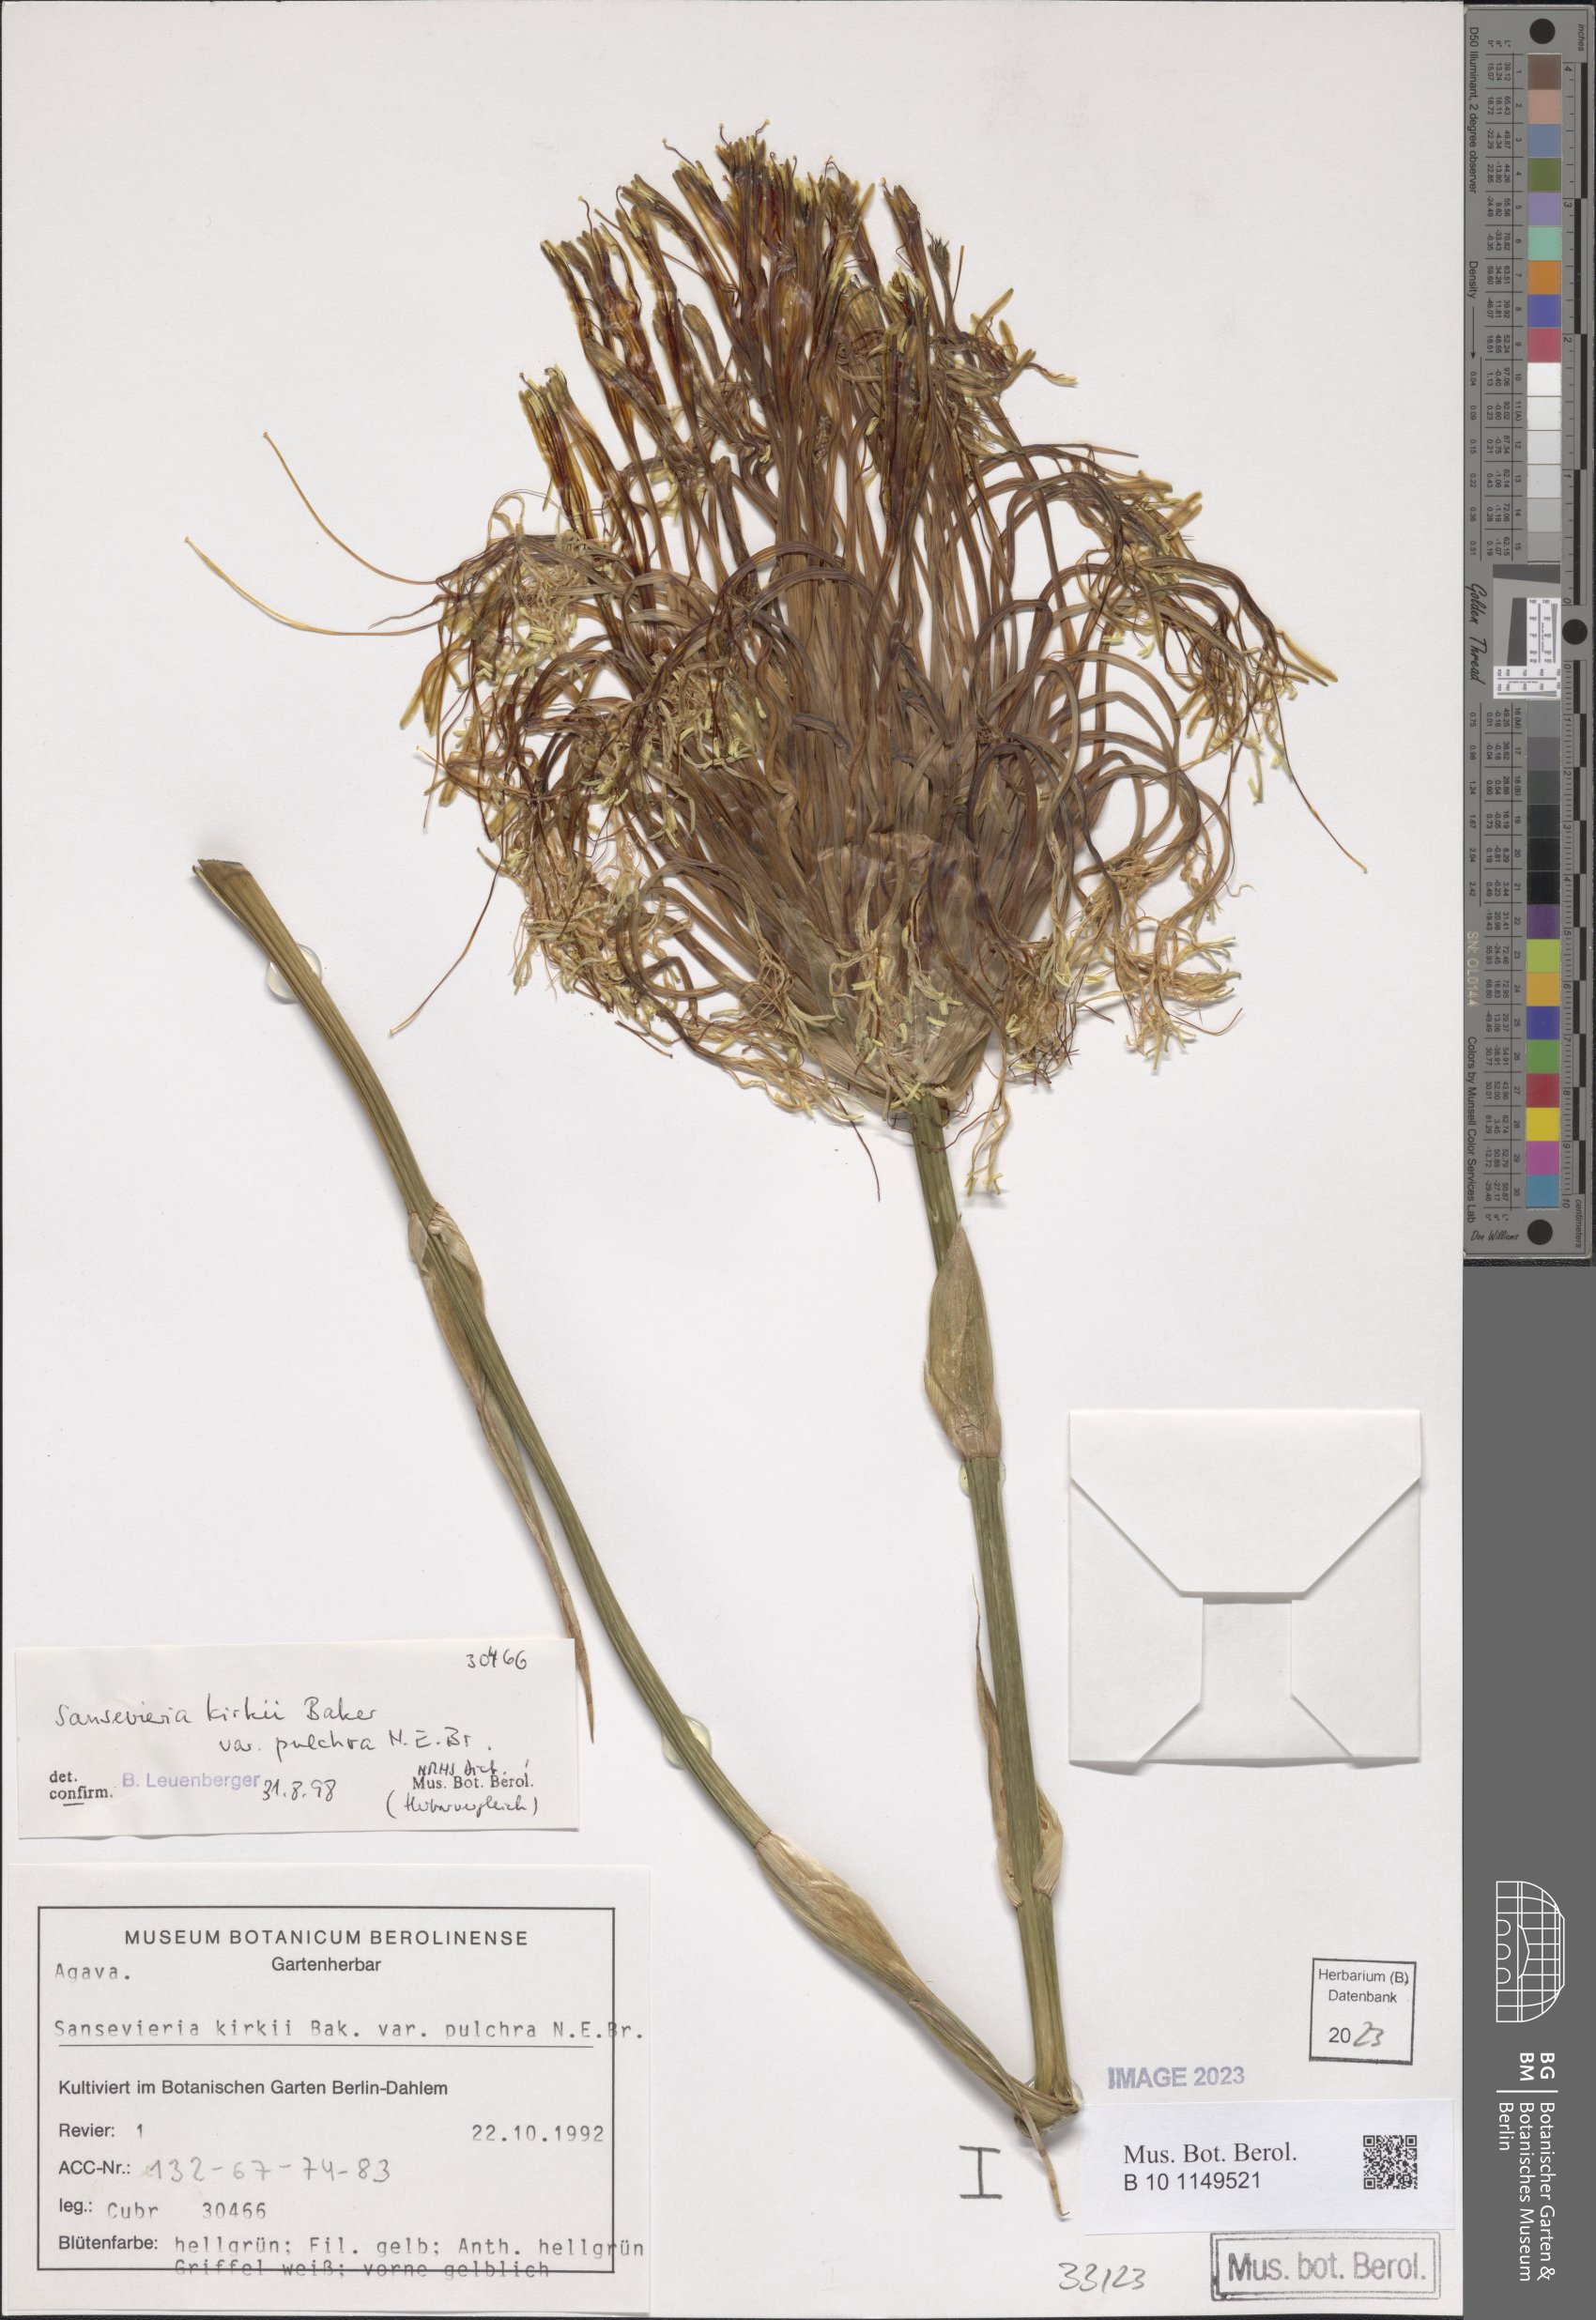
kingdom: Plantae
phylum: Tracheophyta
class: Liliopsida
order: Asparagales
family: Asparagaceae
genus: Dracaena
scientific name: Dracaena pethera
